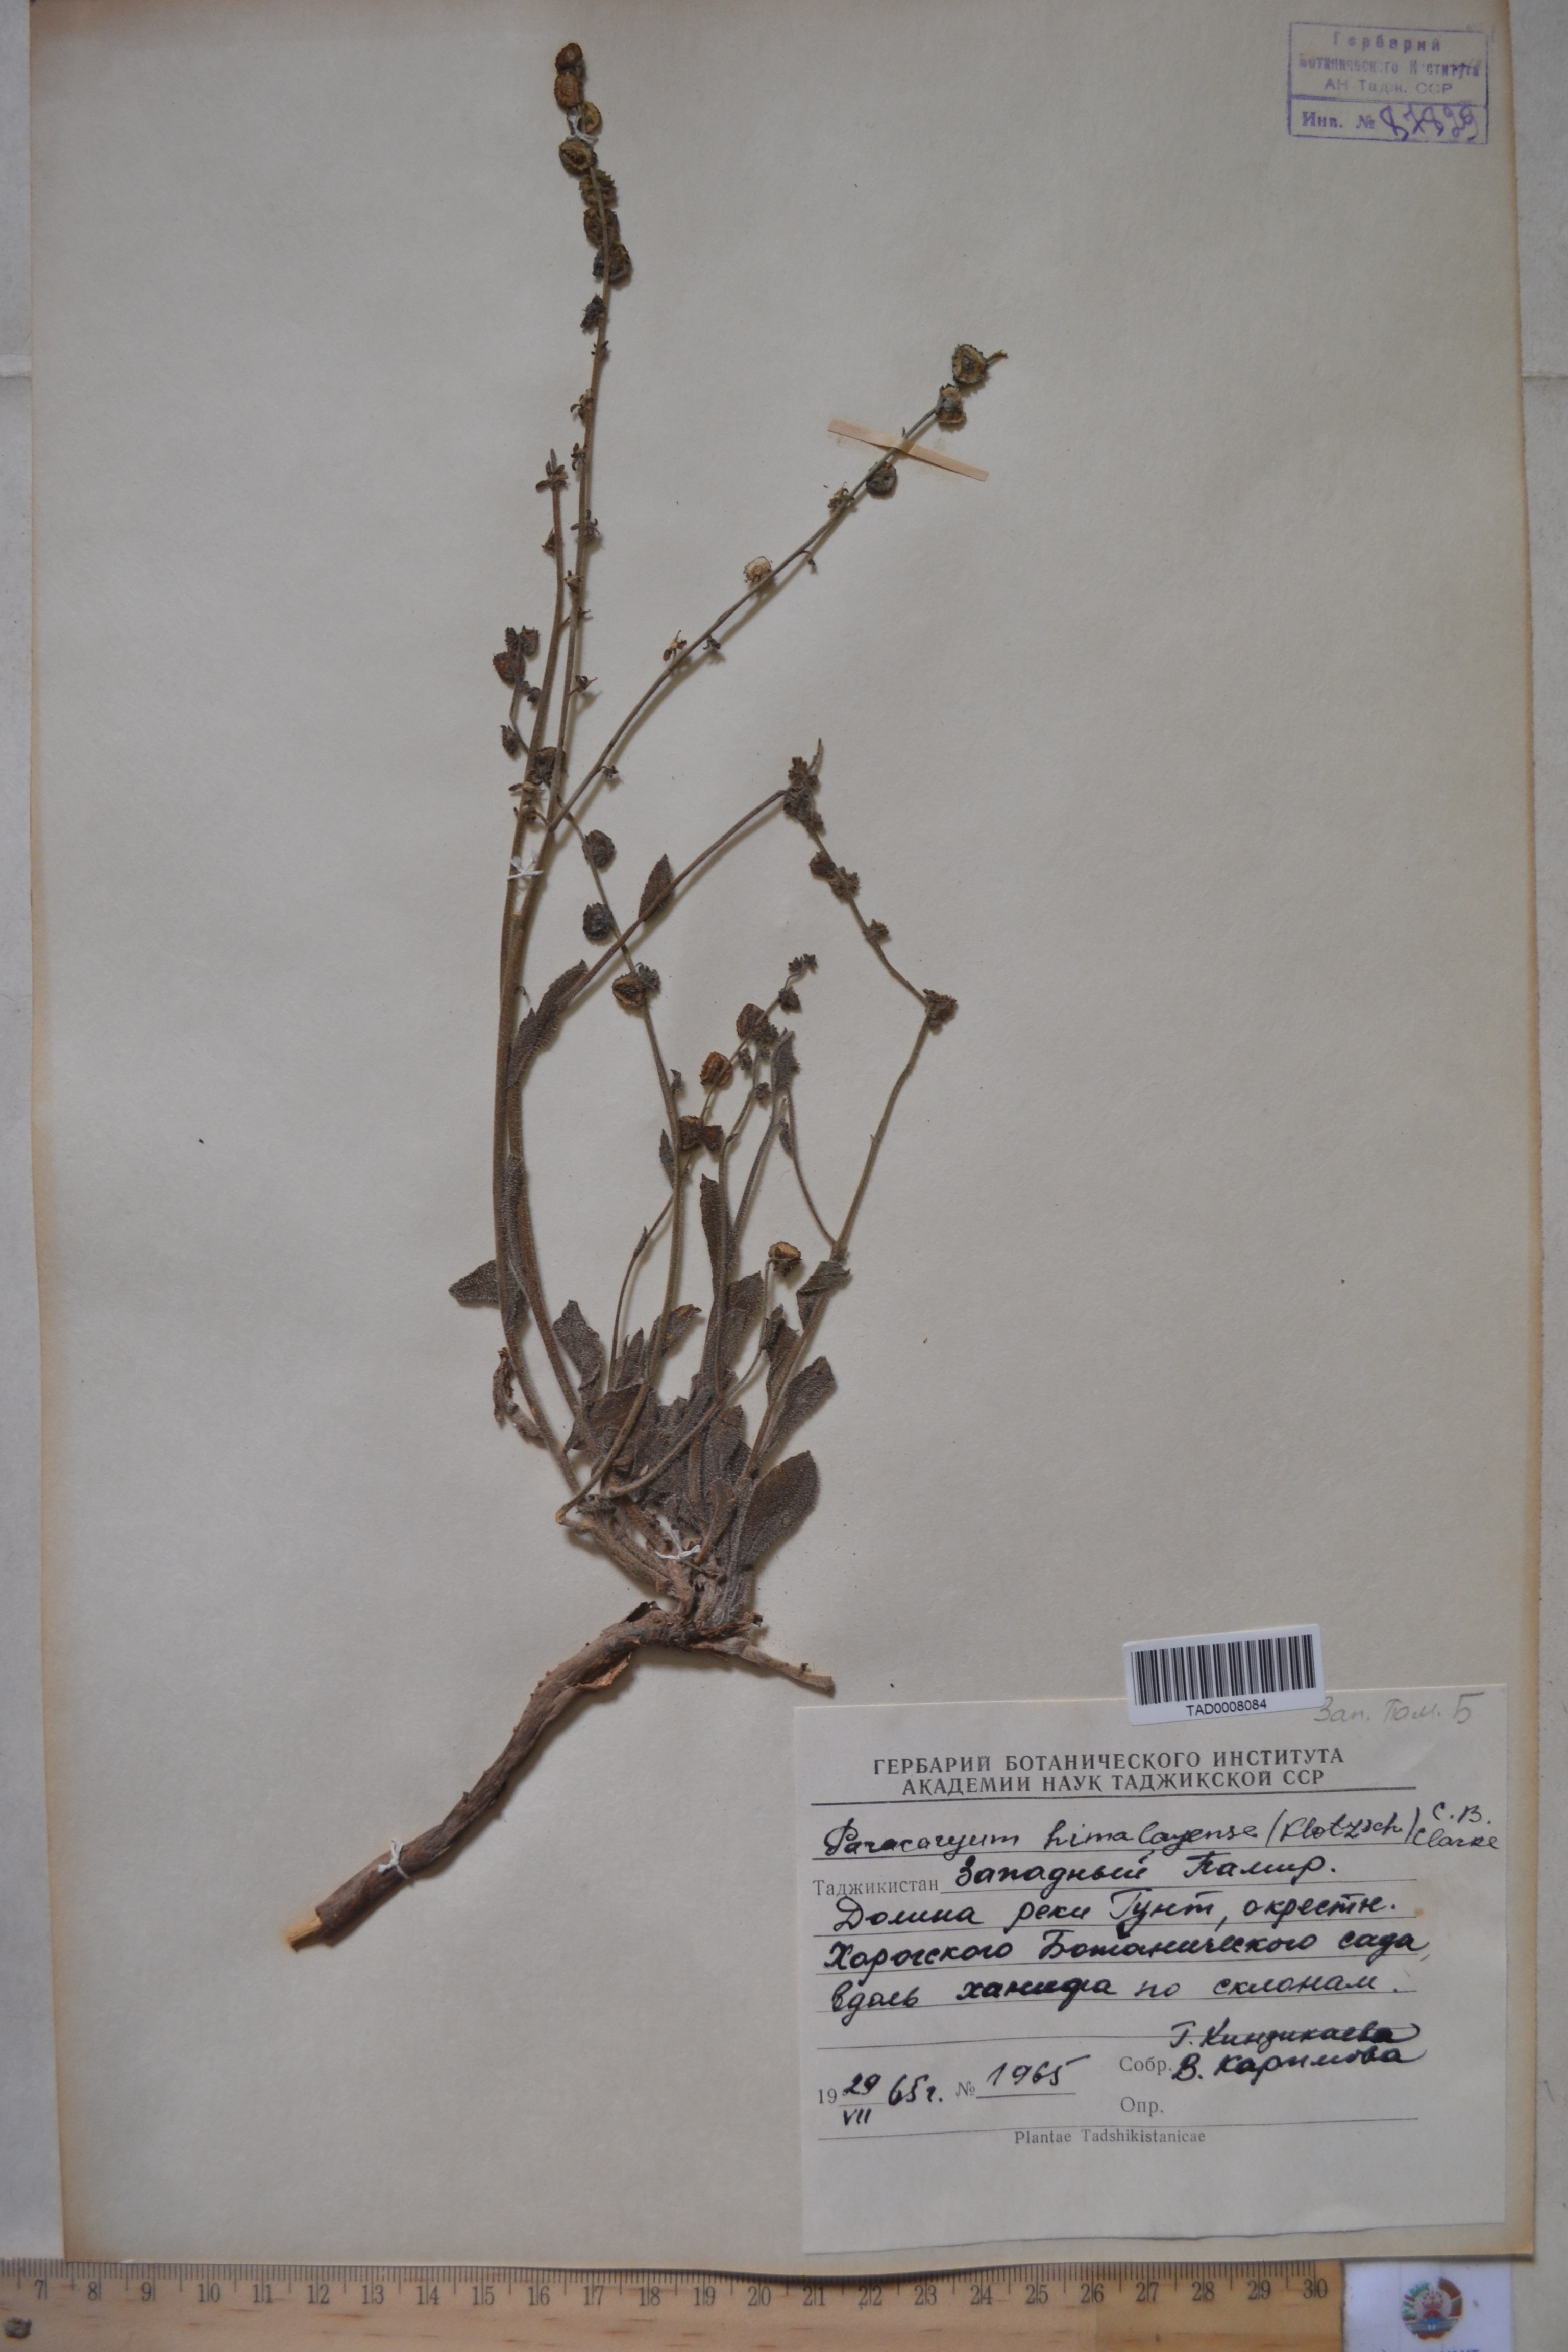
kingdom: Plantae
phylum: Tracheophyta
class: Magnoliopsida
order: Boraginales
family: Boraginaceae
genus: Paracaryum
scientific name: Paracaryum himalayense
